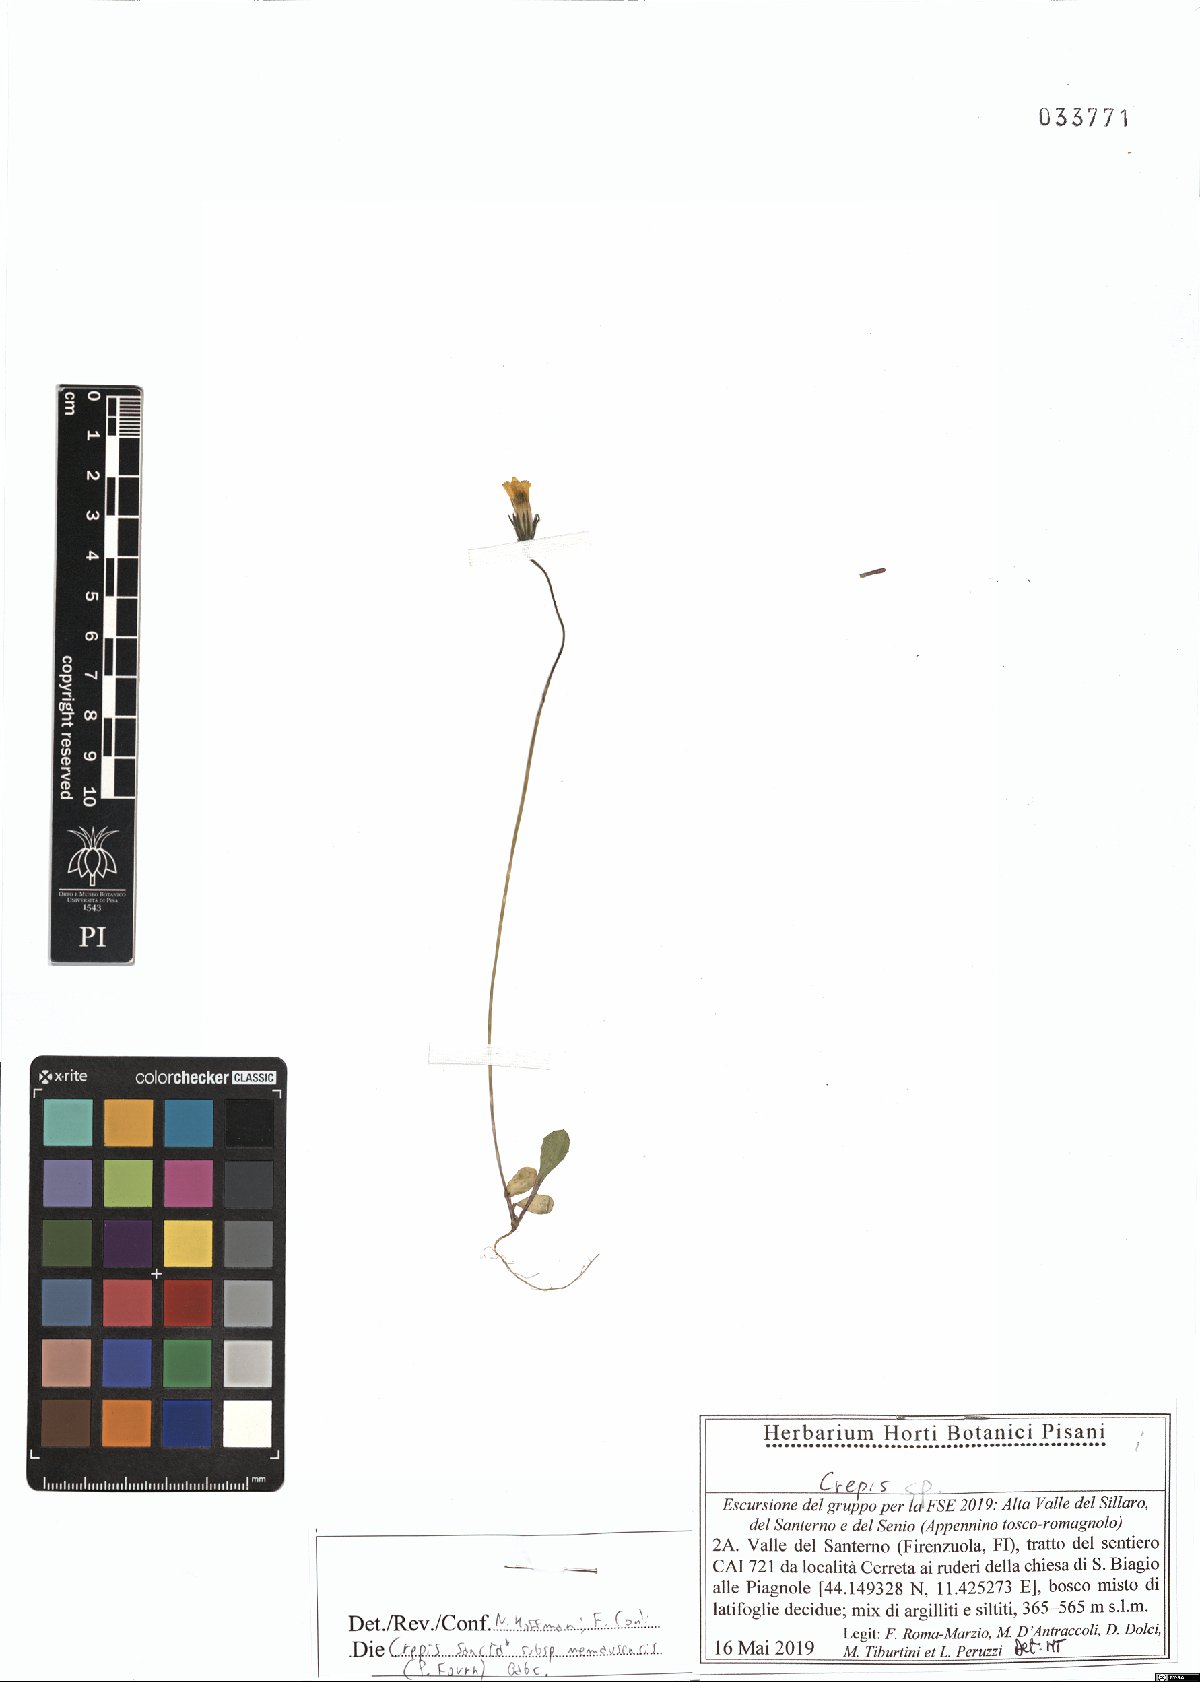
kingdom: Plantae
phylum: Tracheophyta
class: Magnoliopsida
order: Asterales
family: Asteraceae
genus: Crepis
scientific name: Crepis sancta
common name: Hawk's-beard
